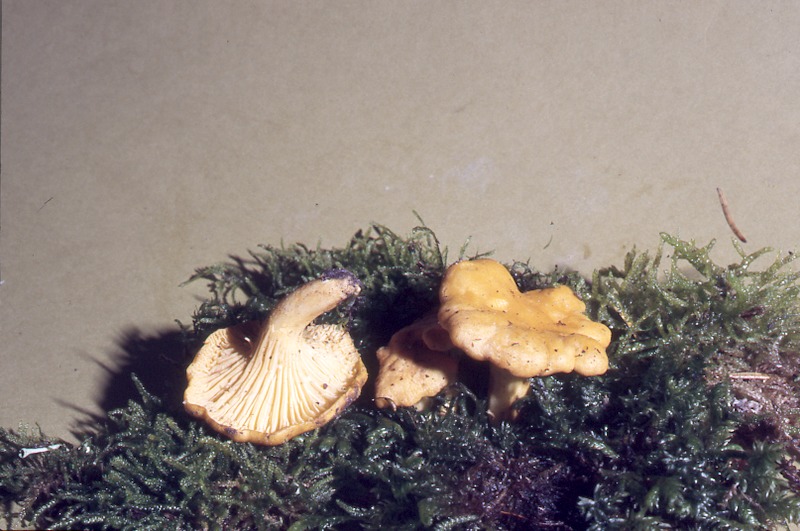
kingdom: Fungi
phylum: Basidiomycota
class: Agaricomycetes
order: Cantharellales
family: Hydnaceae
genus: Cantharellus
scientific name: Cantharellus cibarius
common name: Chanterelle
